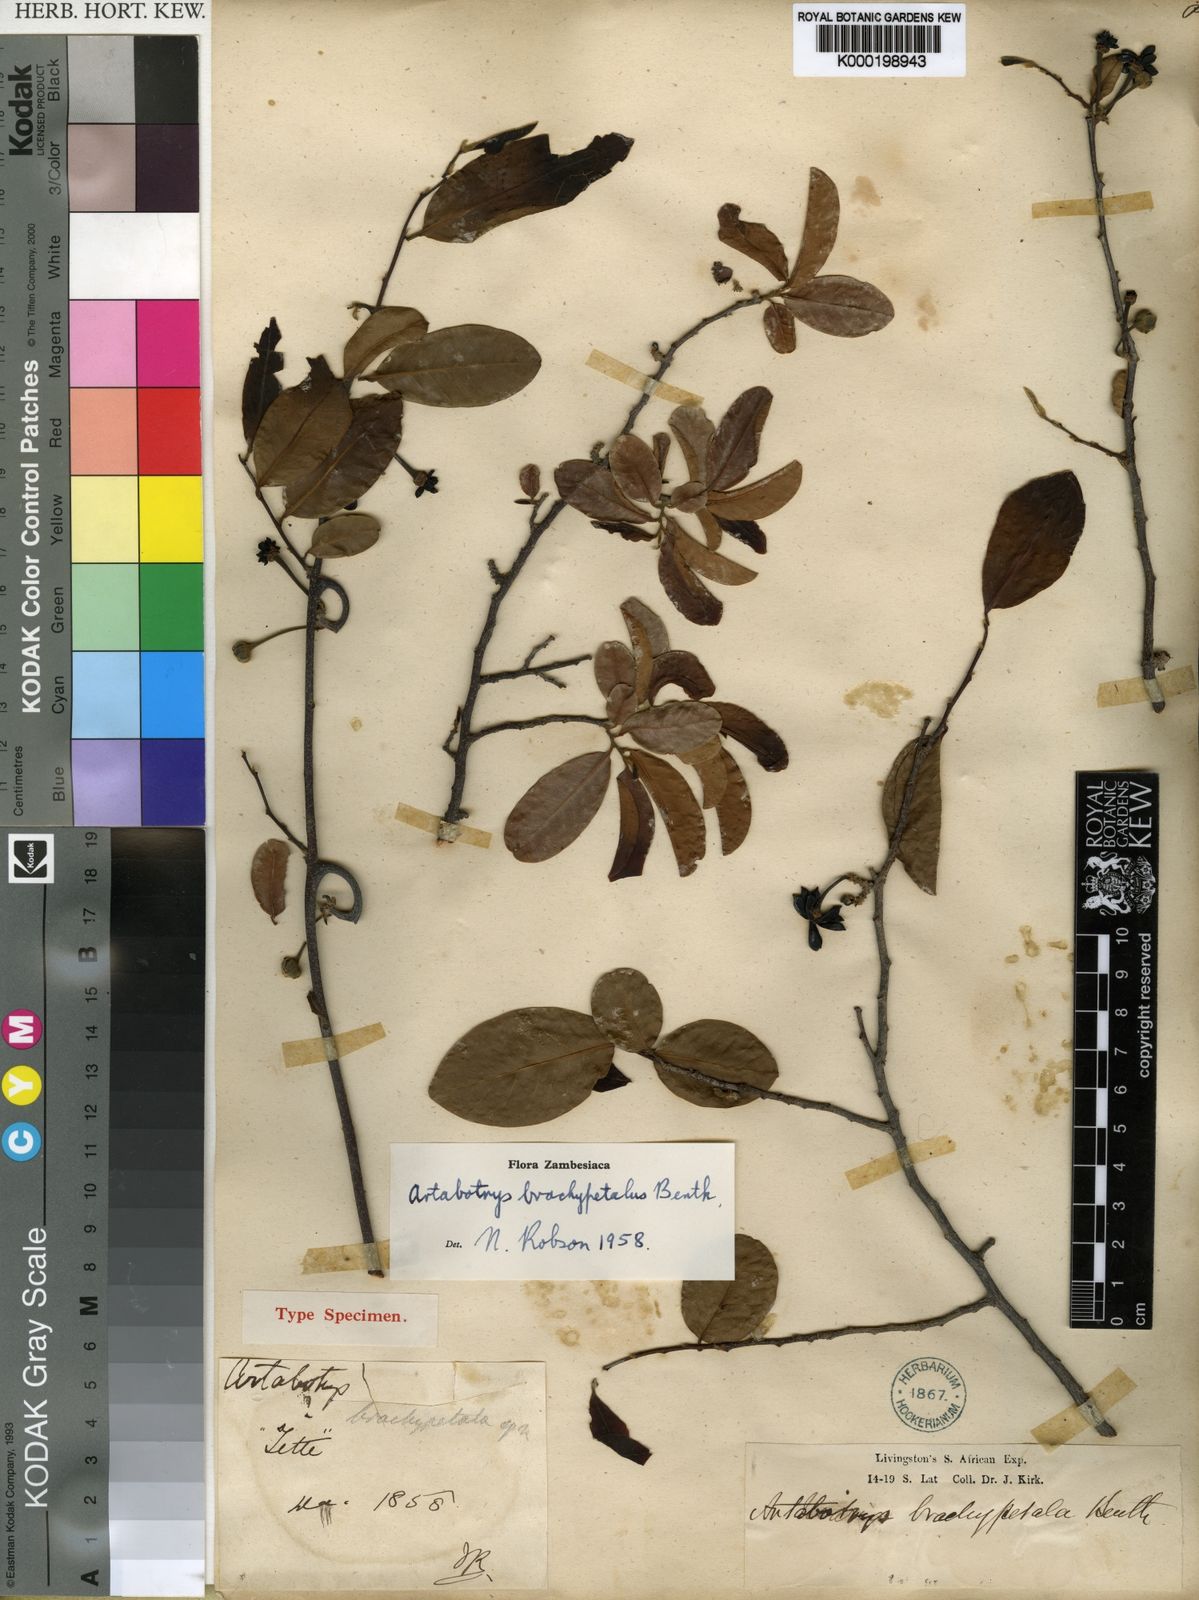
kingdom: Plantae
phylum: Tracheophyta
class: Magnoliopsida
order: Magnoliales
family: Annonaceae
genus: Artabotrys
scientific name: Artabotrys brachypetalus
